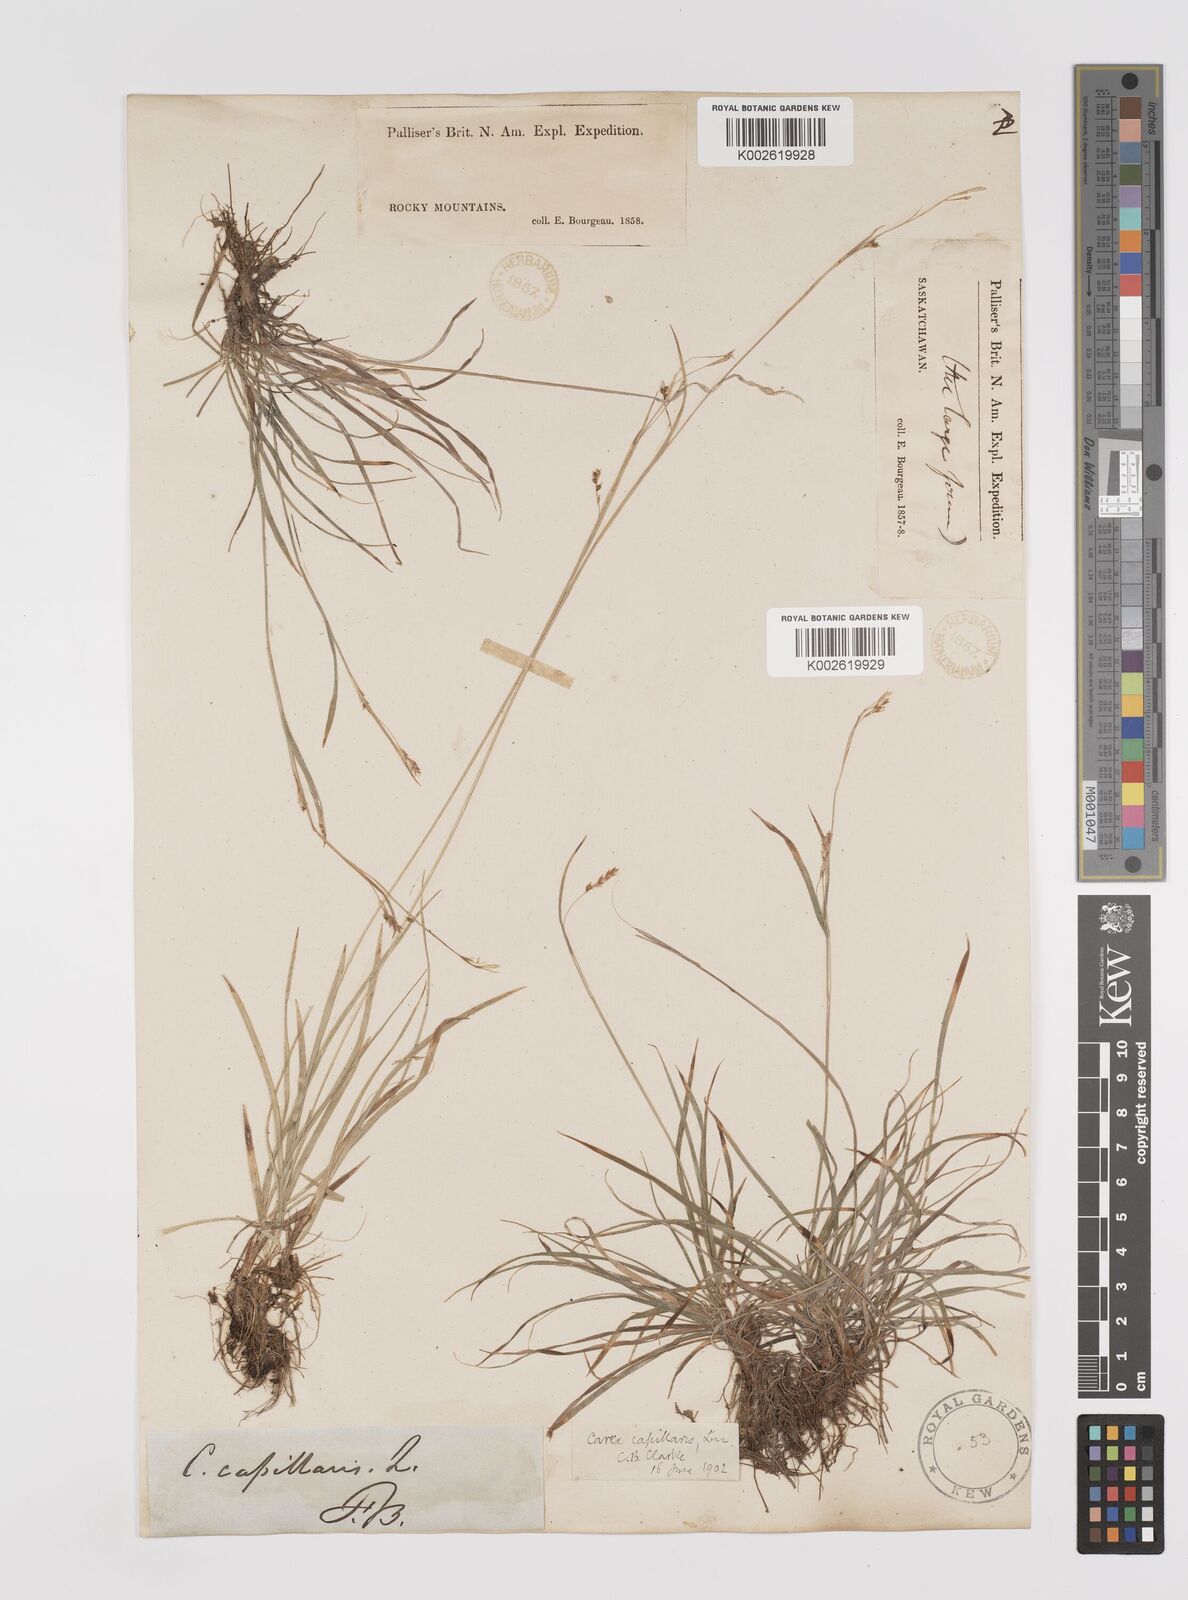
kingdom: Plantae
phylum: Tracheophyta
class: Liliopsida
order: Poales
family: Cyperaceae
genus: Carex
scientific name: Carex capillaris
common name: Hair sedge
